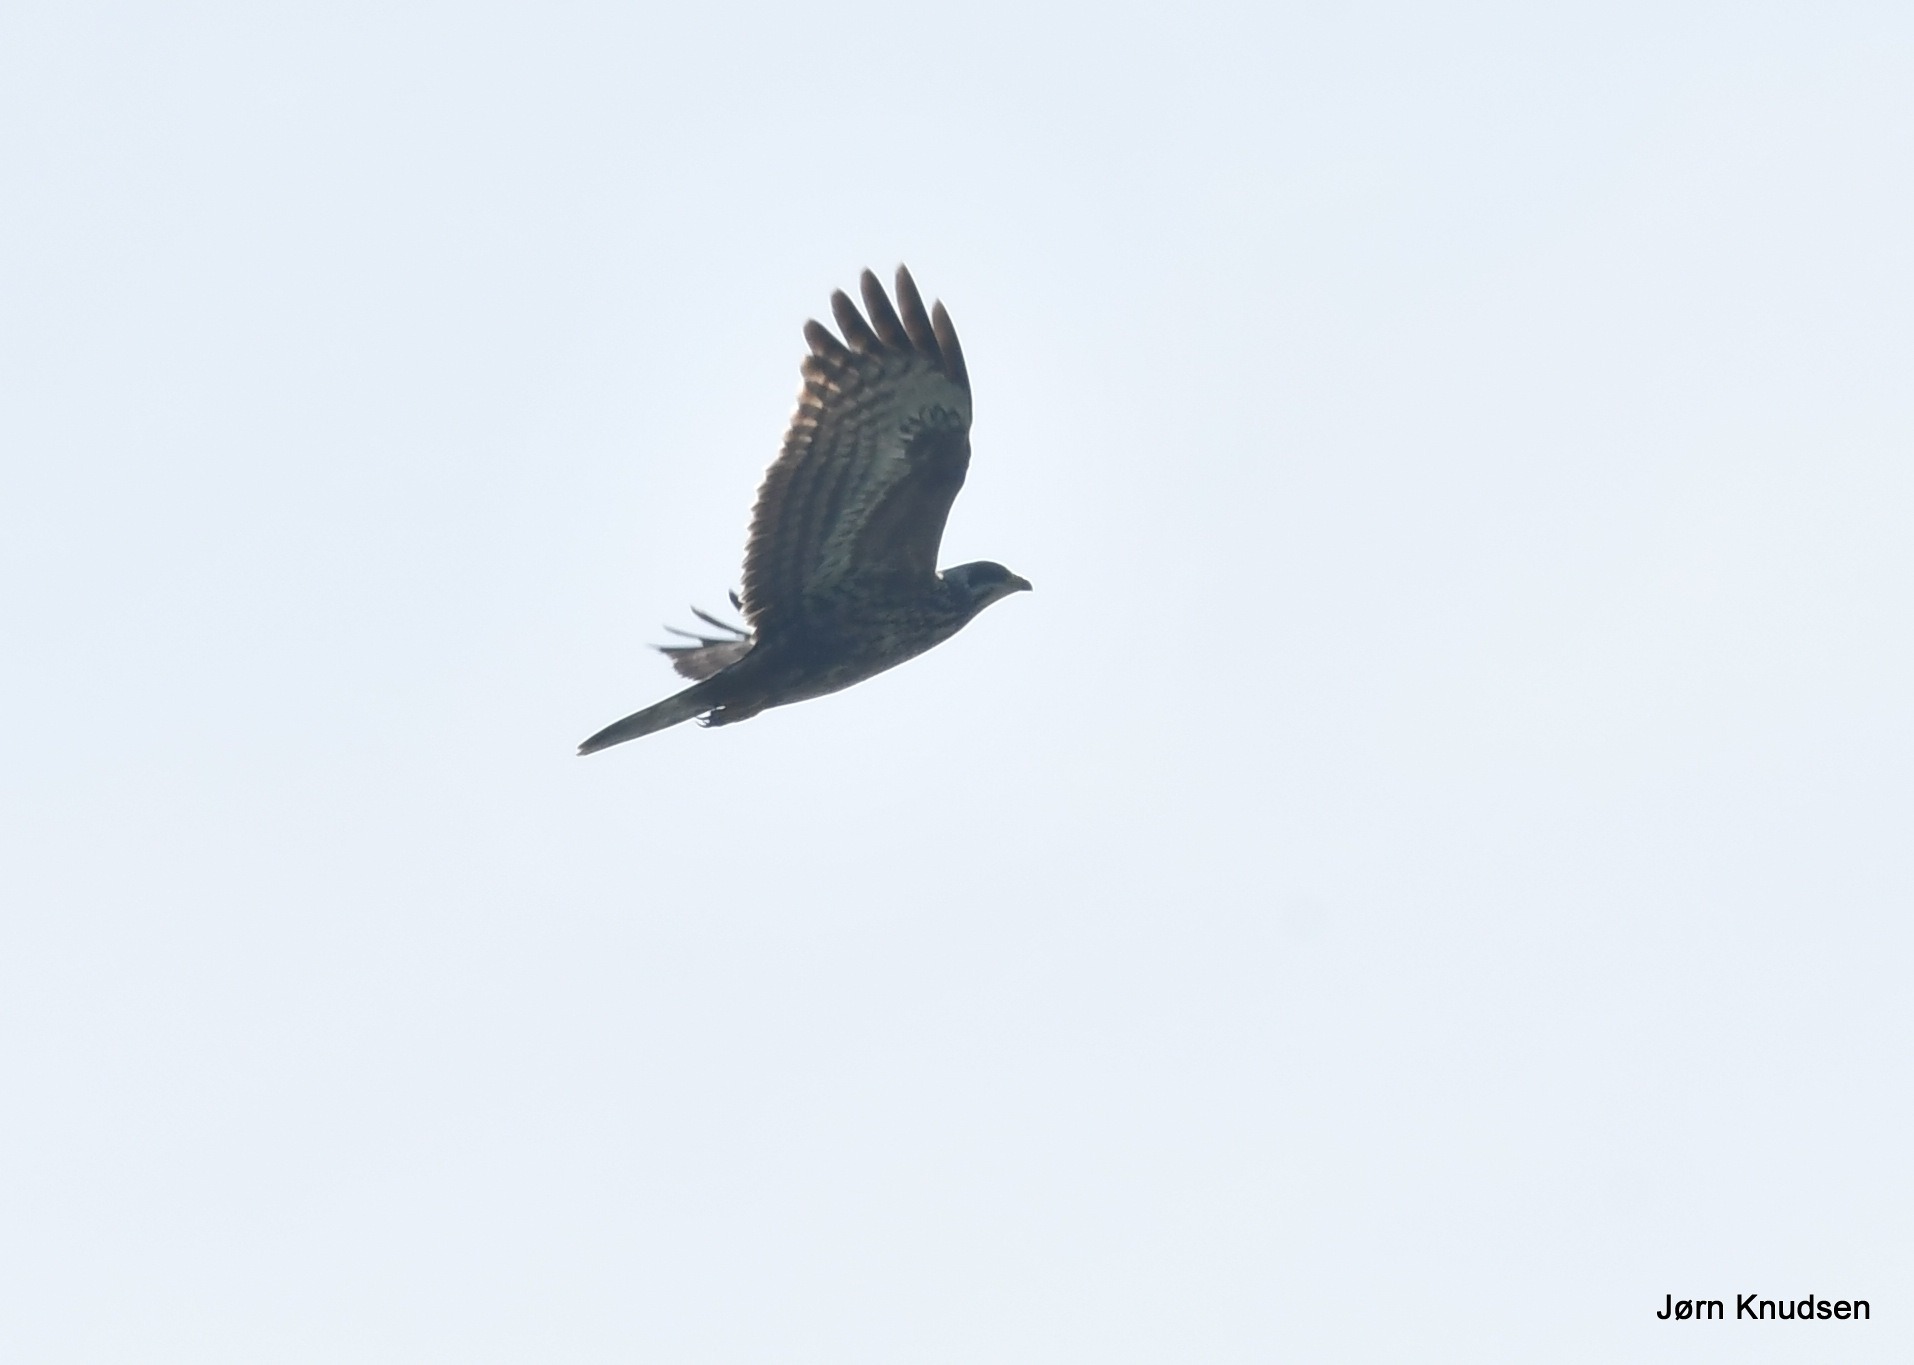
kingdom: Animalia
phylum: Chordata
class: Aves
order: Accipitriformes
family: Accipitridae
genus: Pernis
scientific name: Pernis apivorus
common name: Hvepsevåge
